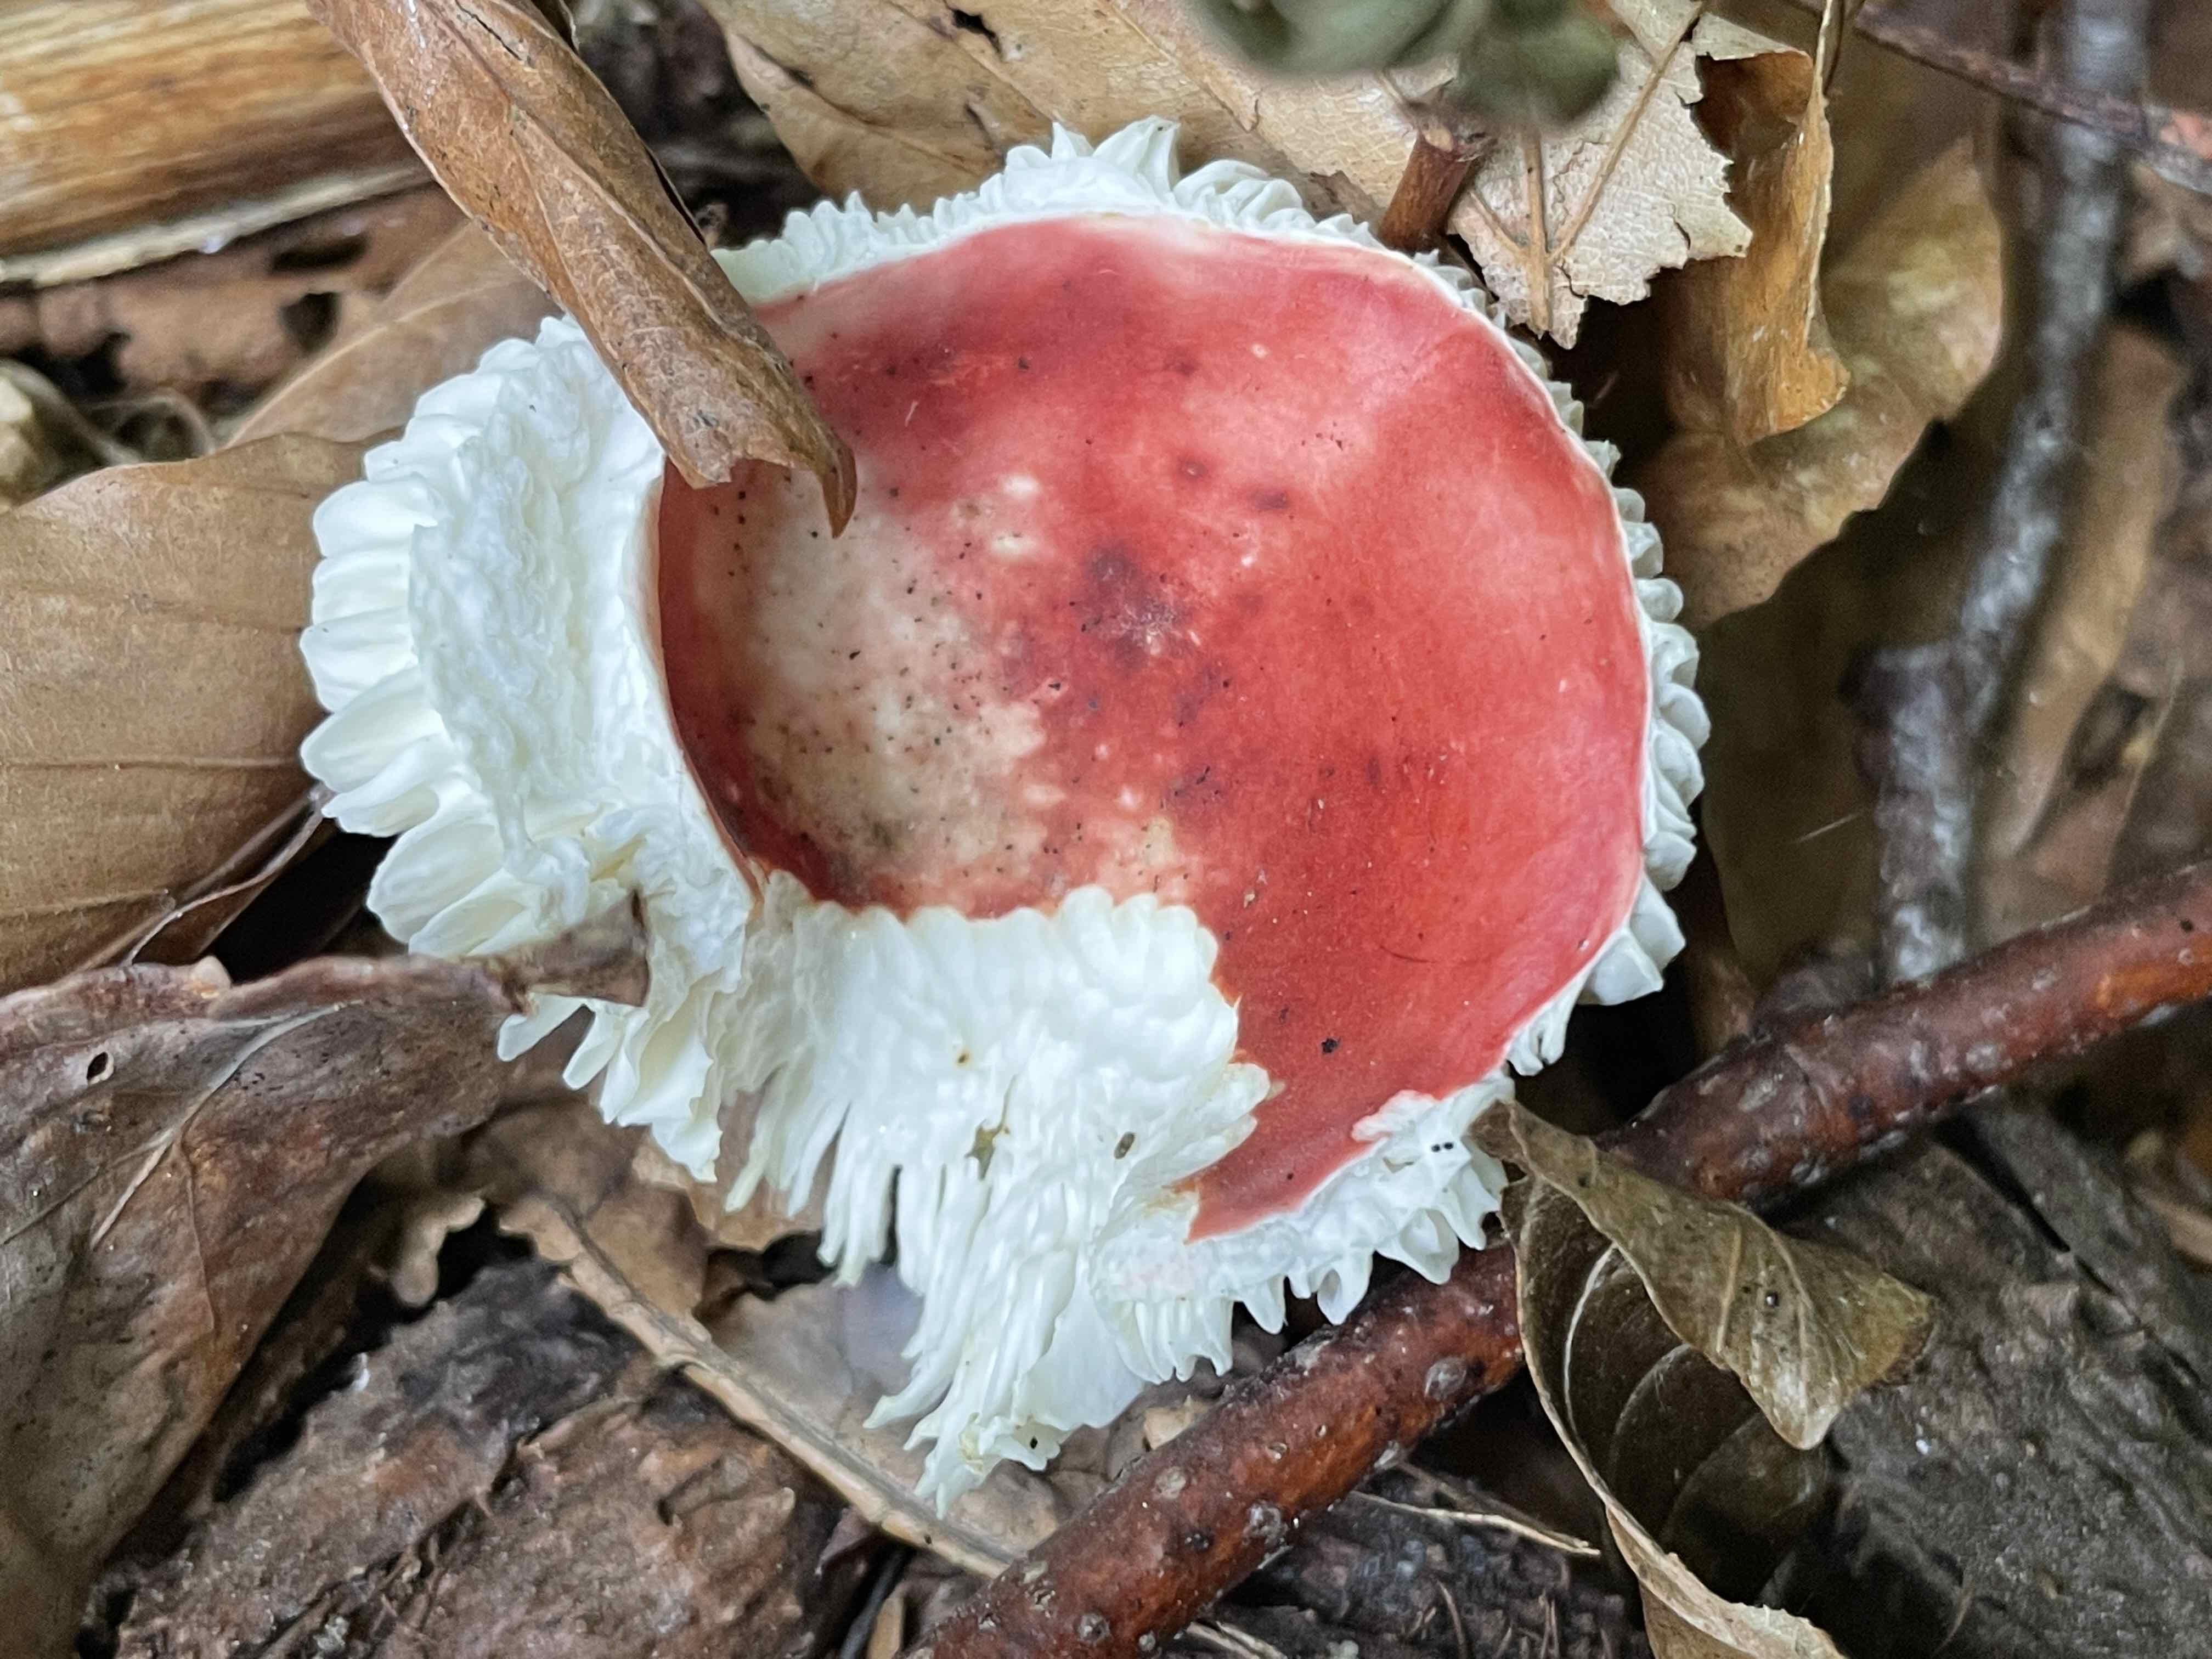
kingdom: Fungi
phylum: Basidiomycota
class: Agaricomycetes
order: Russulales
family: Russulaceae
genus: Russula
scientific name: Russula nobilis
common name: lille gift-skørhat
